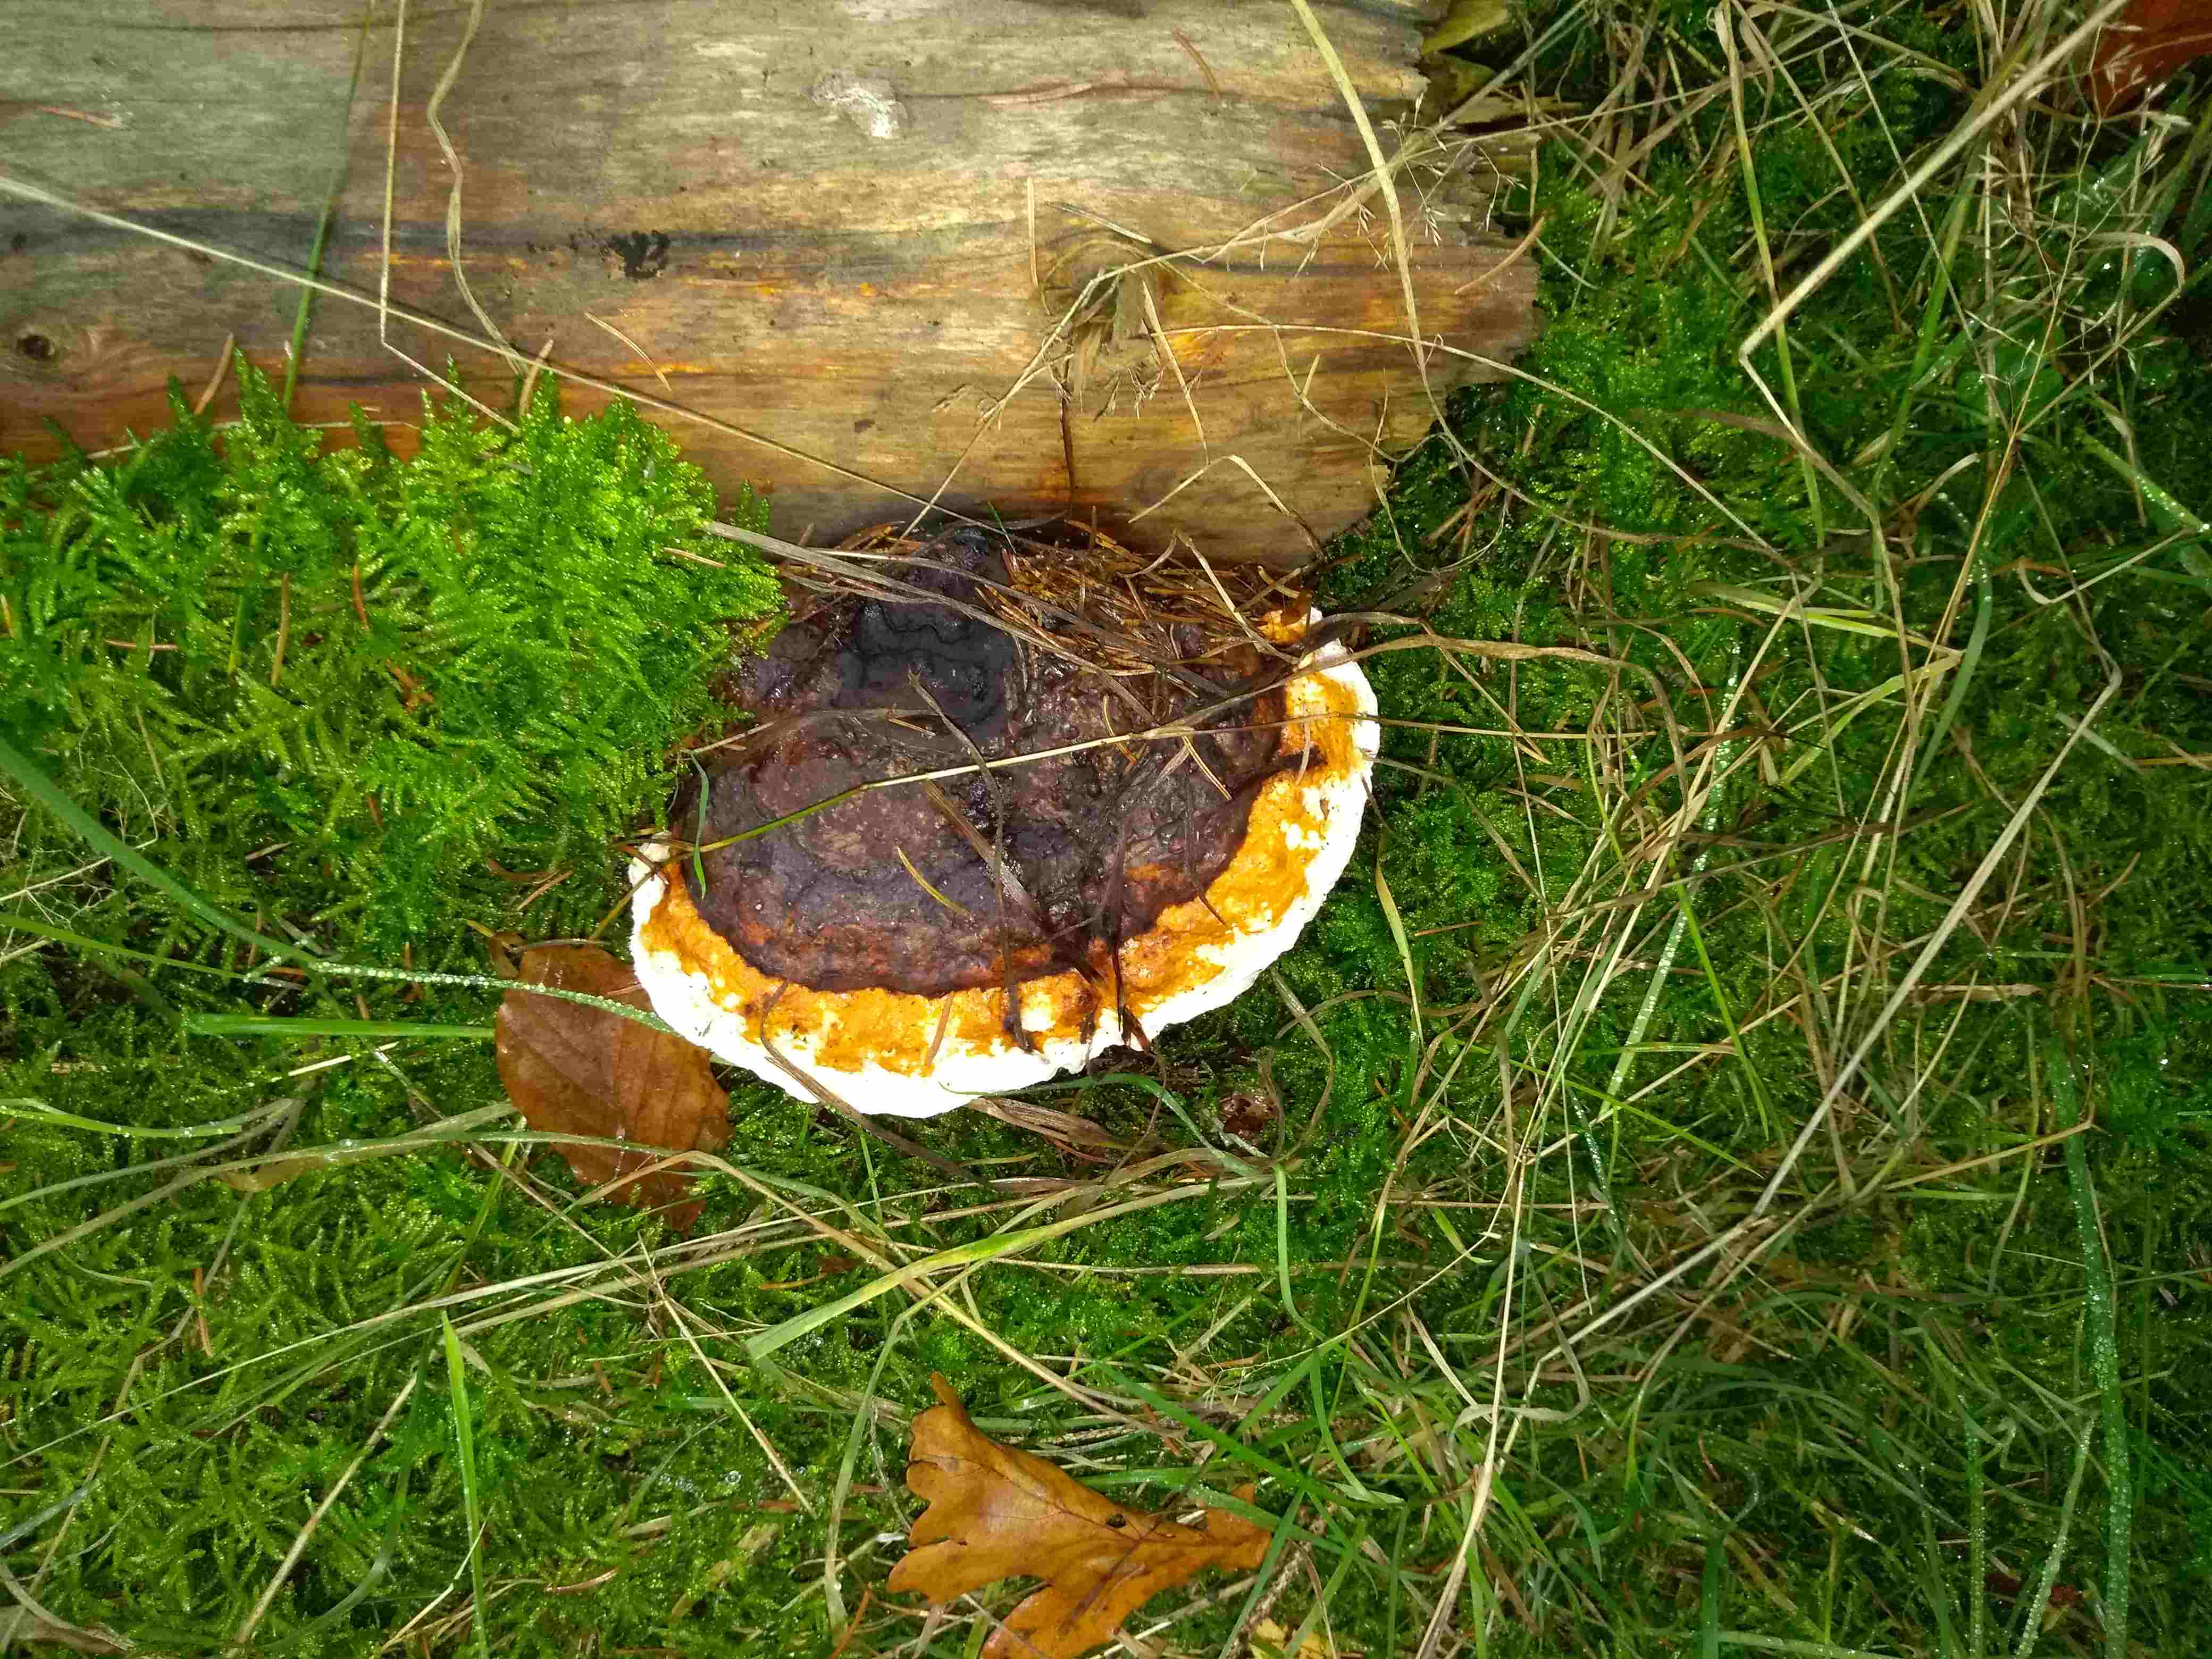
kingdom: Fungi
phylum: Basidiomycota
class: Agaricomycetes
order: Polyporales
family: Fomitopsidaceae
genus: Fomitopsis
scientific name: Fomitopsis pinicola
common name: randbæltet hovporesvamp
